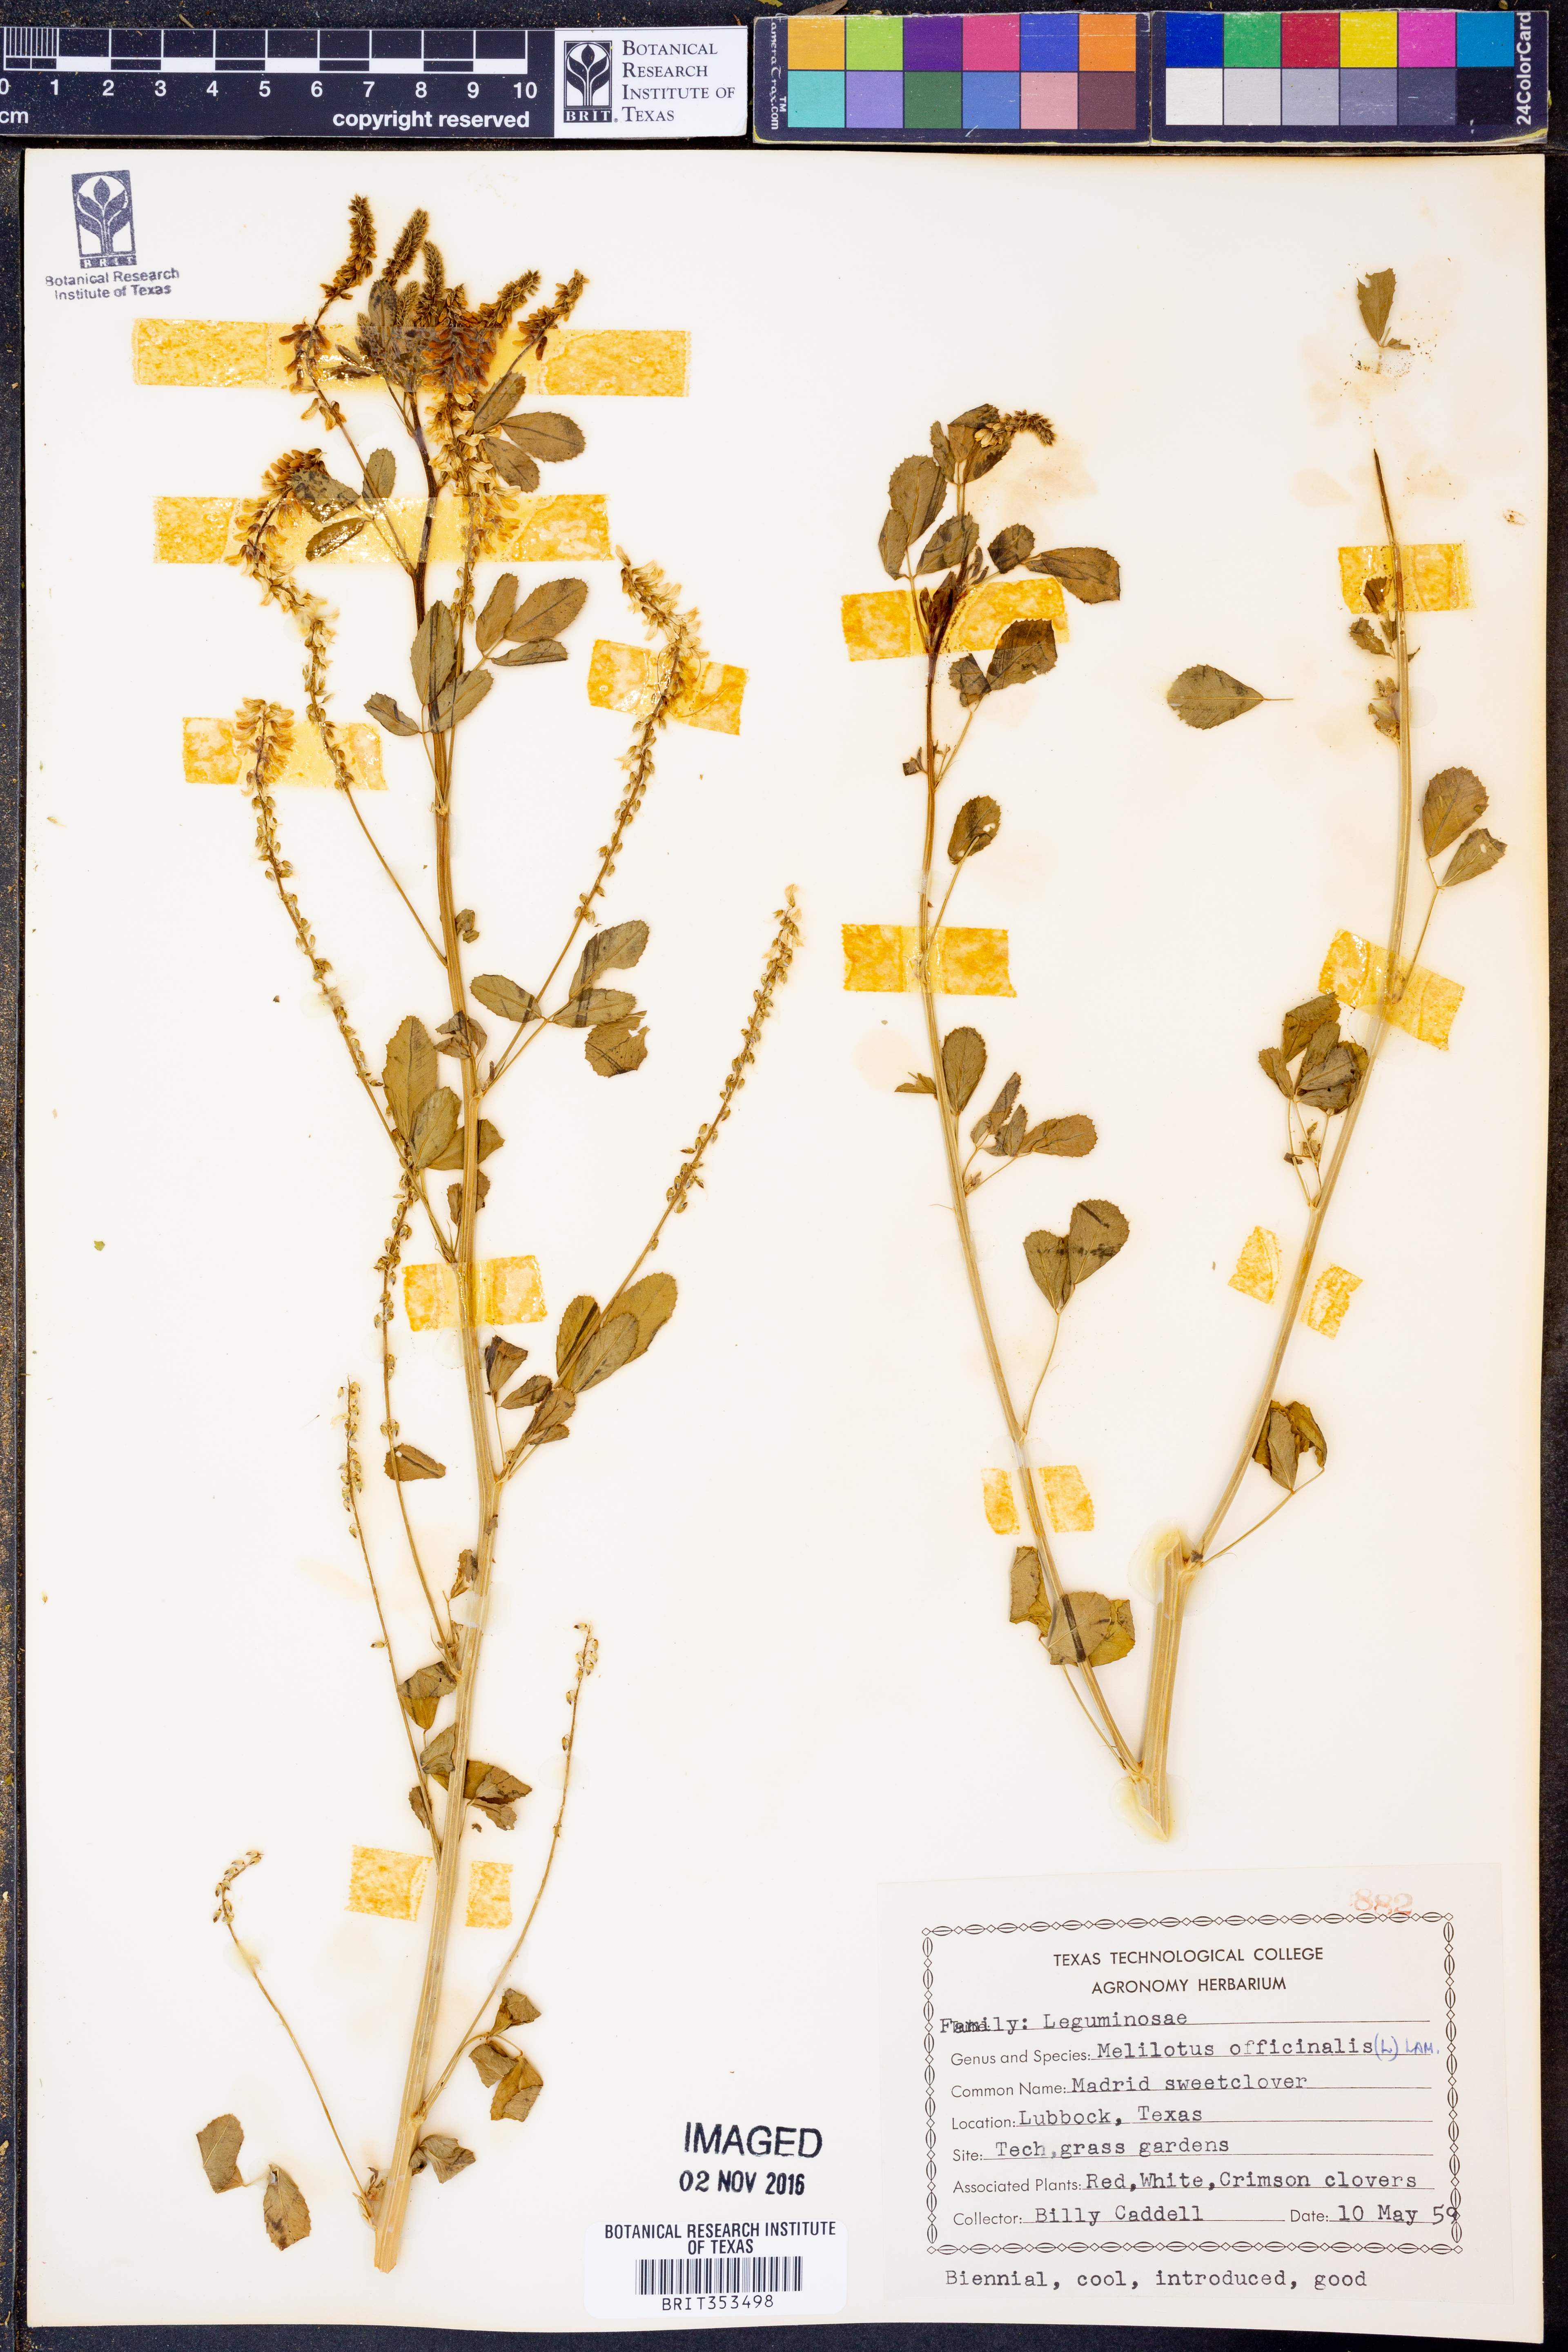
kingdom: Plantae
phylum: Tracheophyta
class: Magnoliopsida
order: Fabales
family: Fabaceae
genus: Melilotus
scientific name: Melilotus officinalis
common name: Sweetclover
